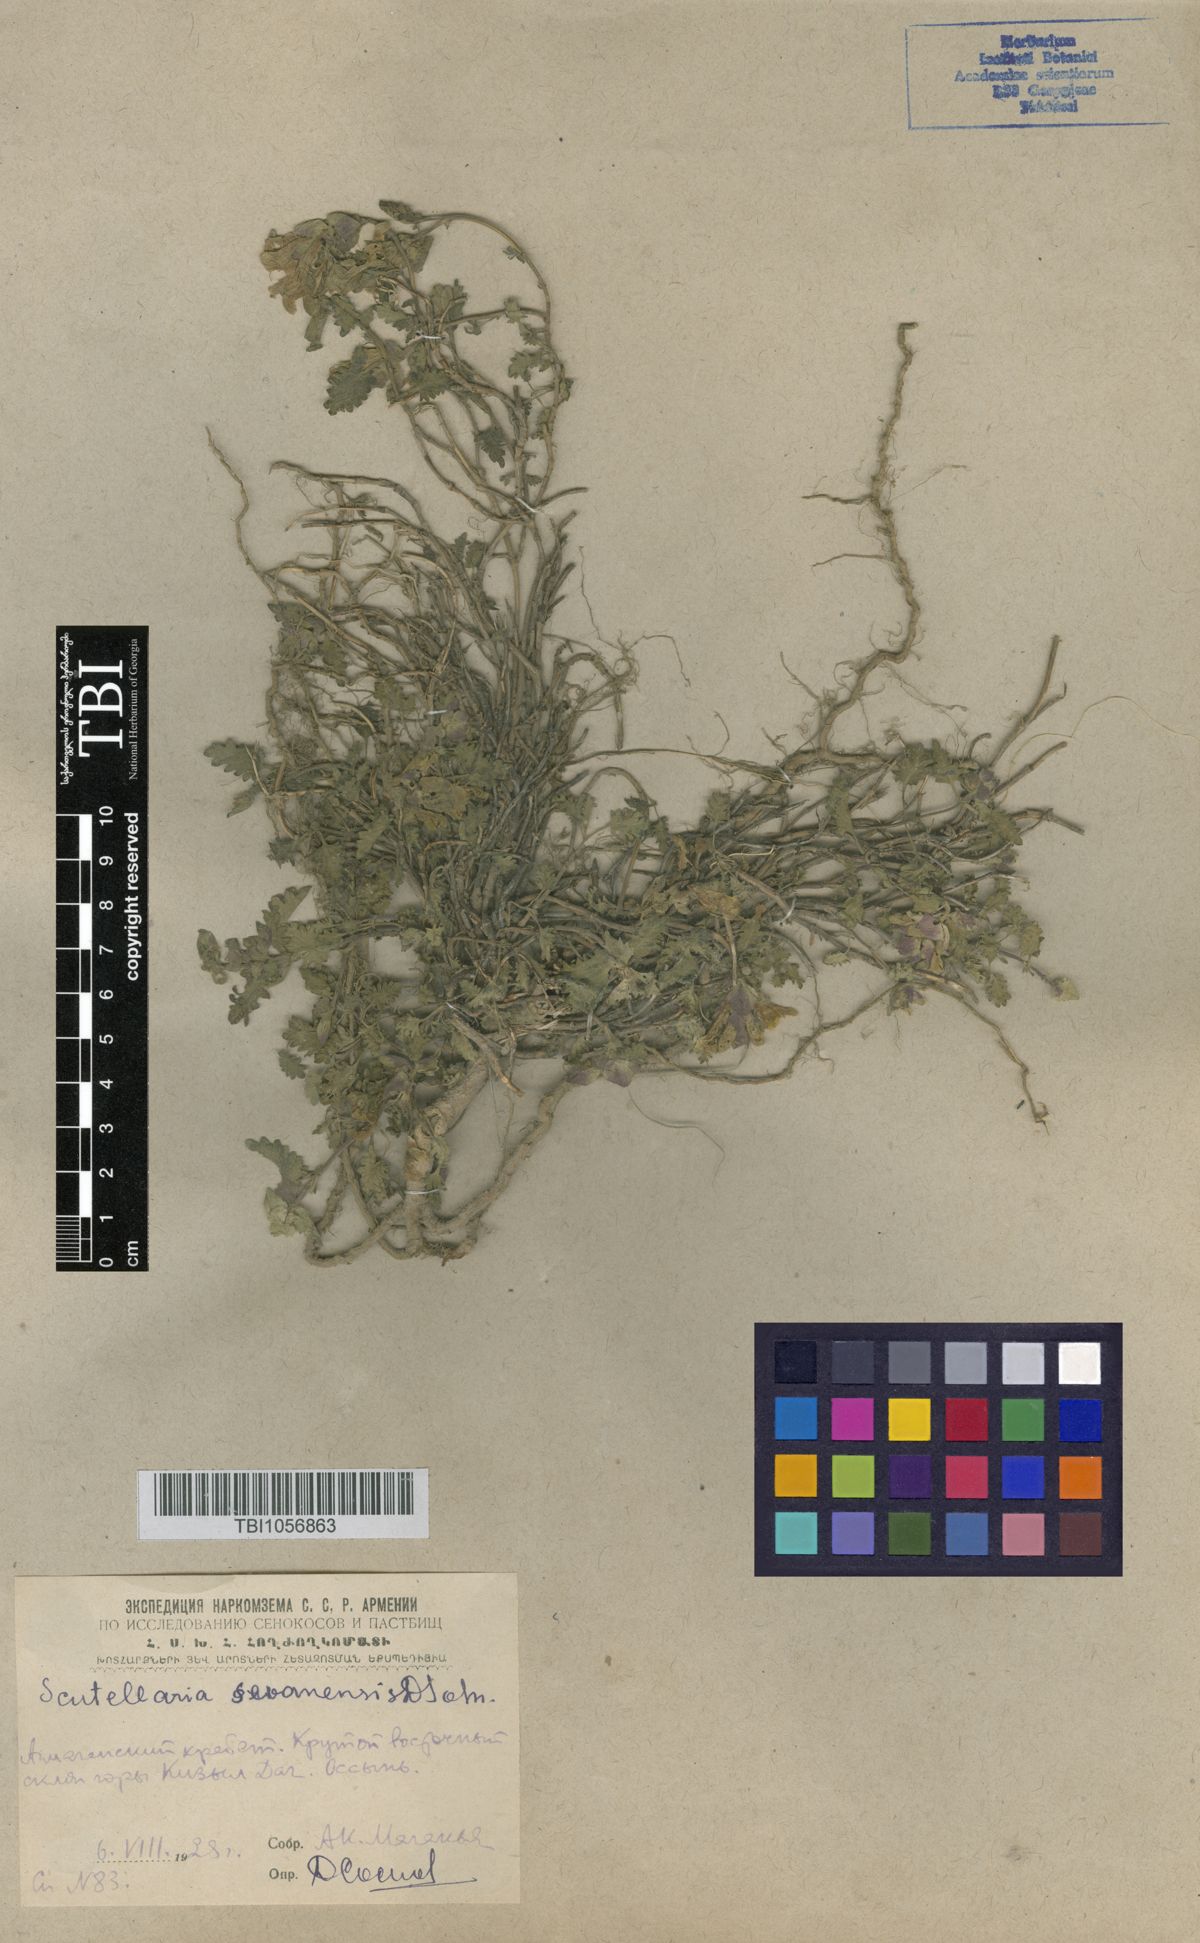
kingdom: Plantae
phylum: Tracheophyta
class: Magnoliopsida
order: Lamiales
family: Lamiaceae
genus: Scutellaria
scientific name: Scutellaria sevanensis
